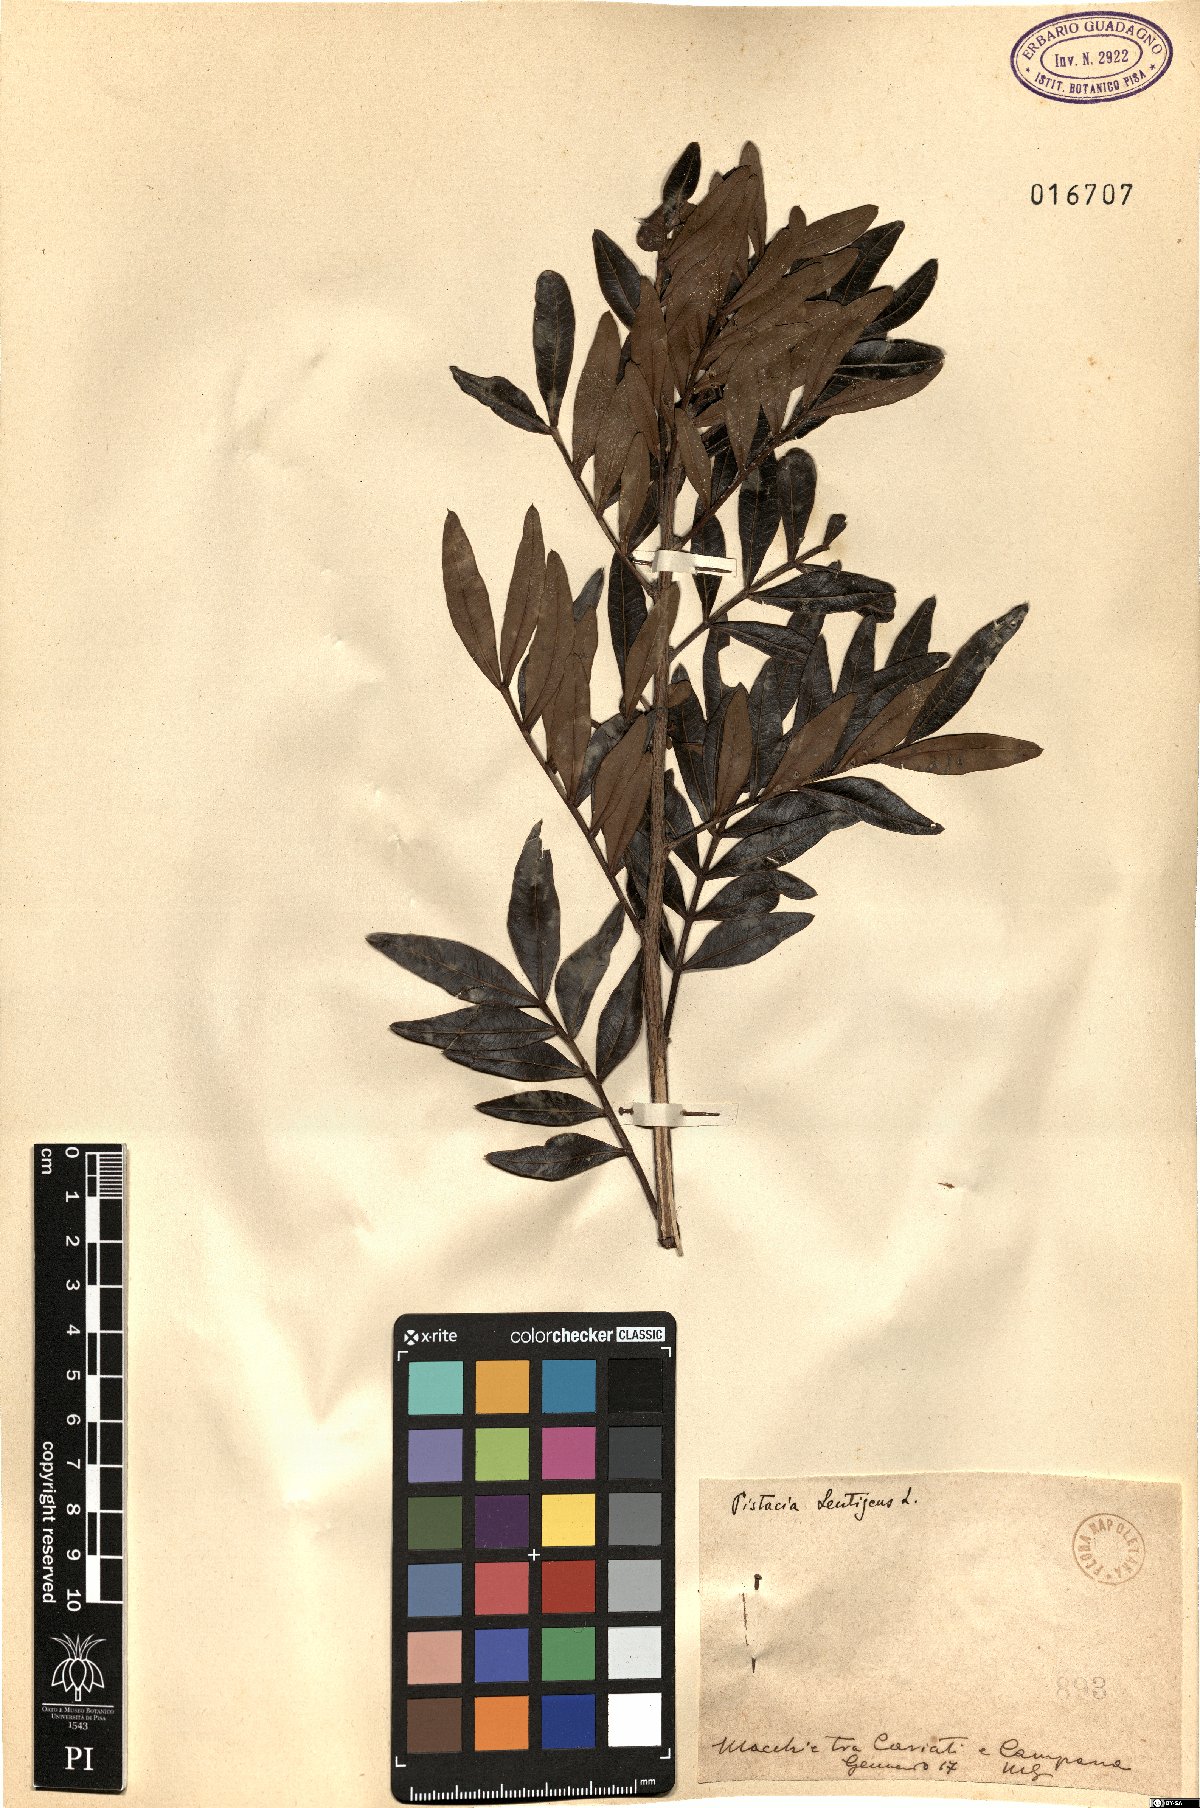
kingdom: Plantae
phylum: Tracheophyta
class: Magnoliopsida
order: Sapindales
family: Anacardiaceae
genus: Pistacia
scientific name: Pistacia lentiscus
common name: Lentisk
